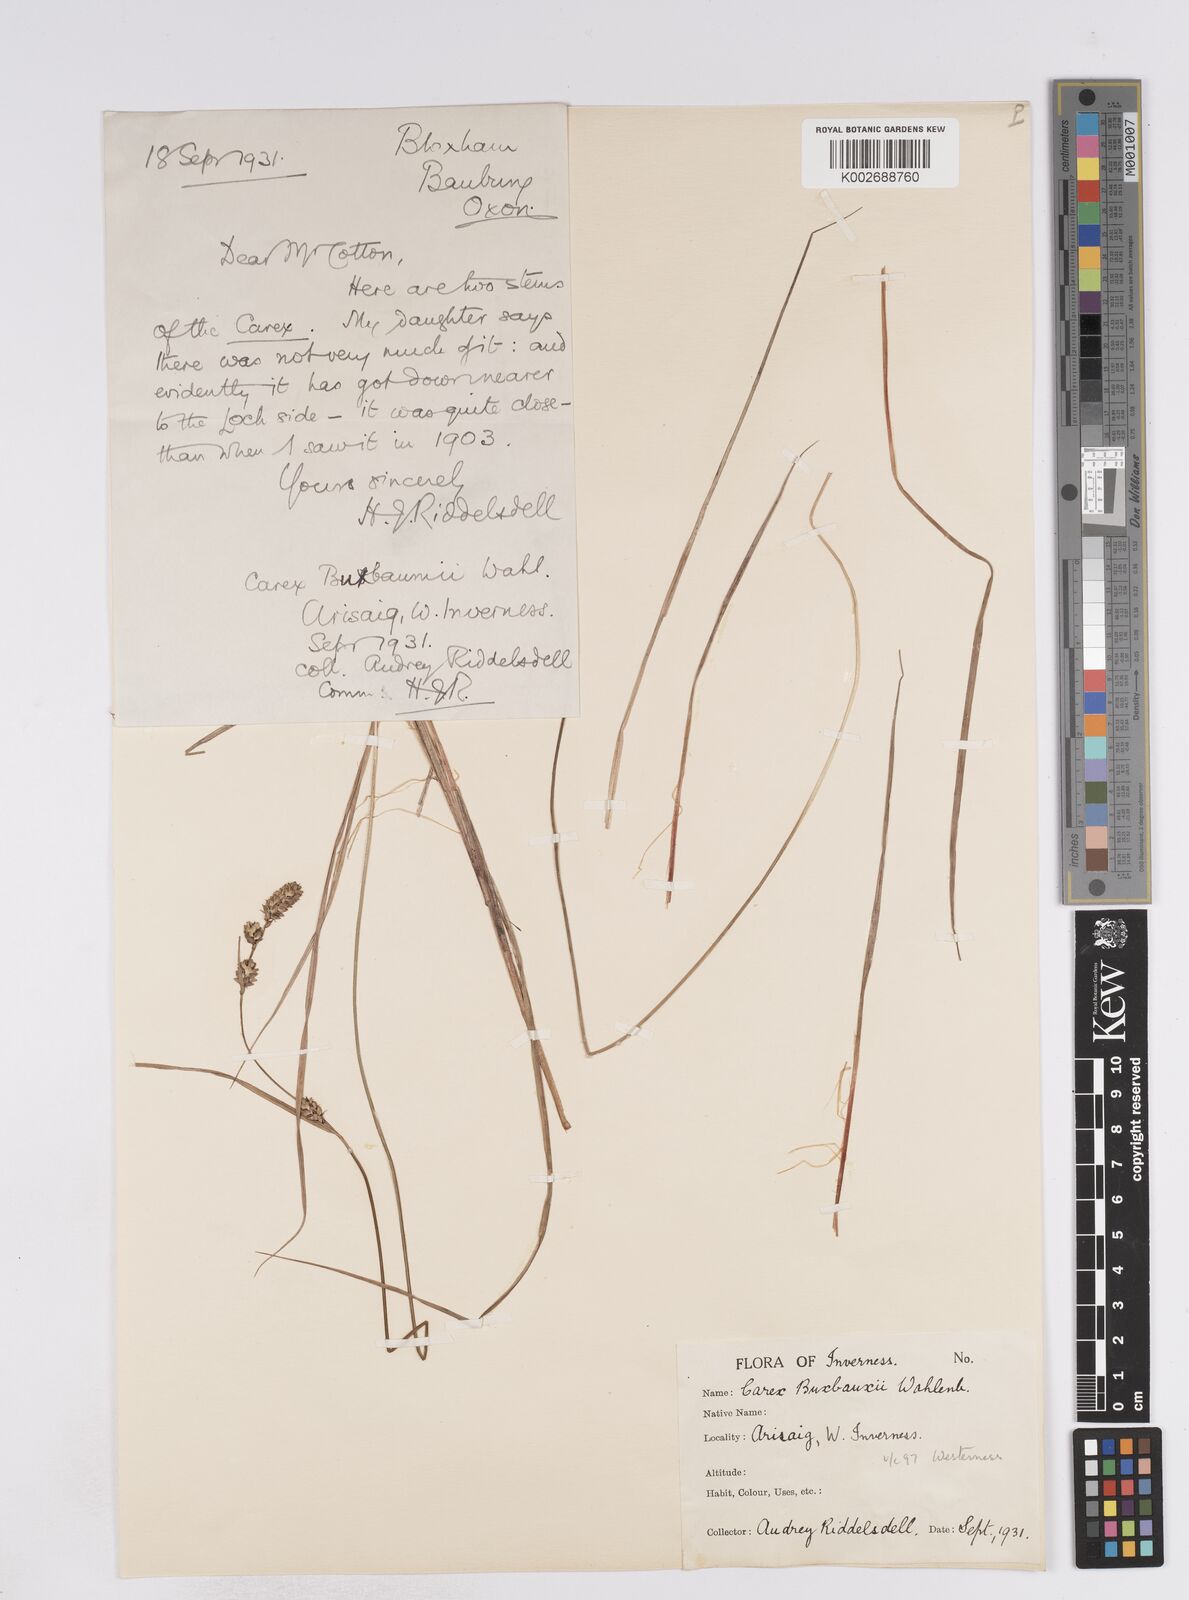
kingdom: Plantae
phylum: Tracheophyta
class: Liliopsida
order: Poales
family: Cyperaceae
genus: Carex
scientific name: Carex buxbaumii
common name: Club sedge
